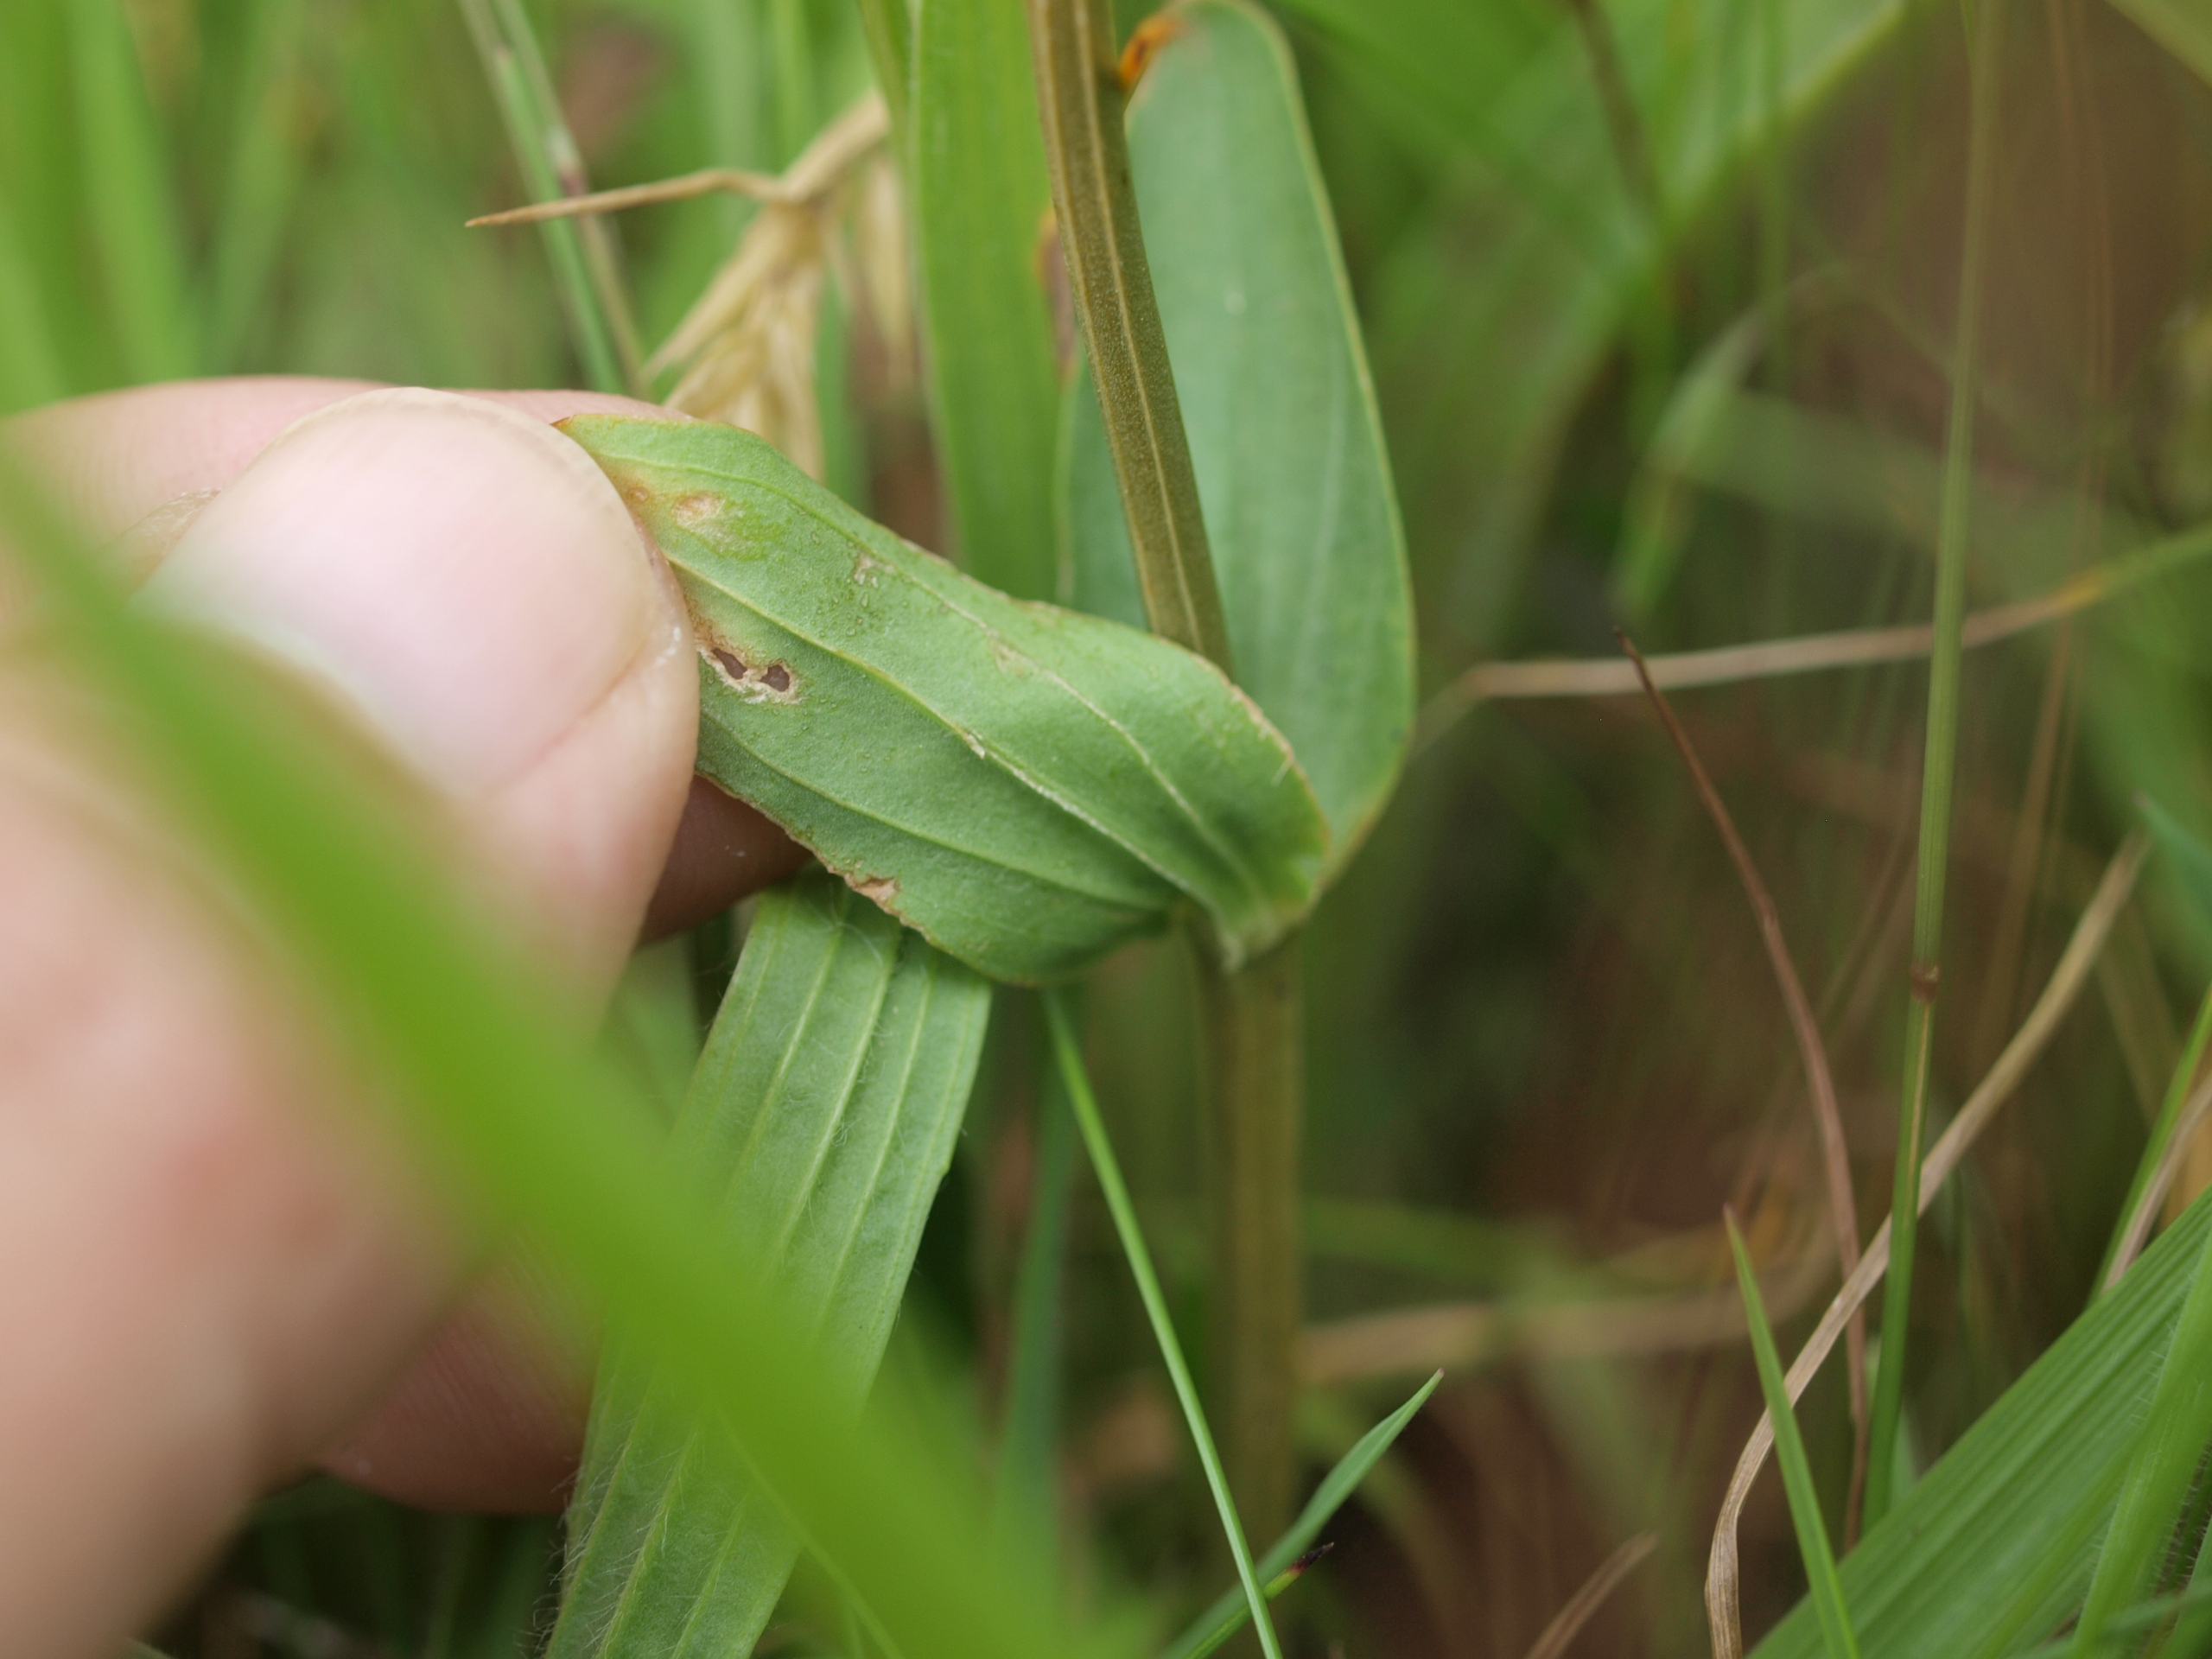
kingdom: Plantae
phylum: Tracheophyta
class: Magnoliopsida
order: Gentianales
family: Gentianaceae
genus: Centaurium
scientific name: Centaurium erythraea
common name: Mark-tusindgylden
